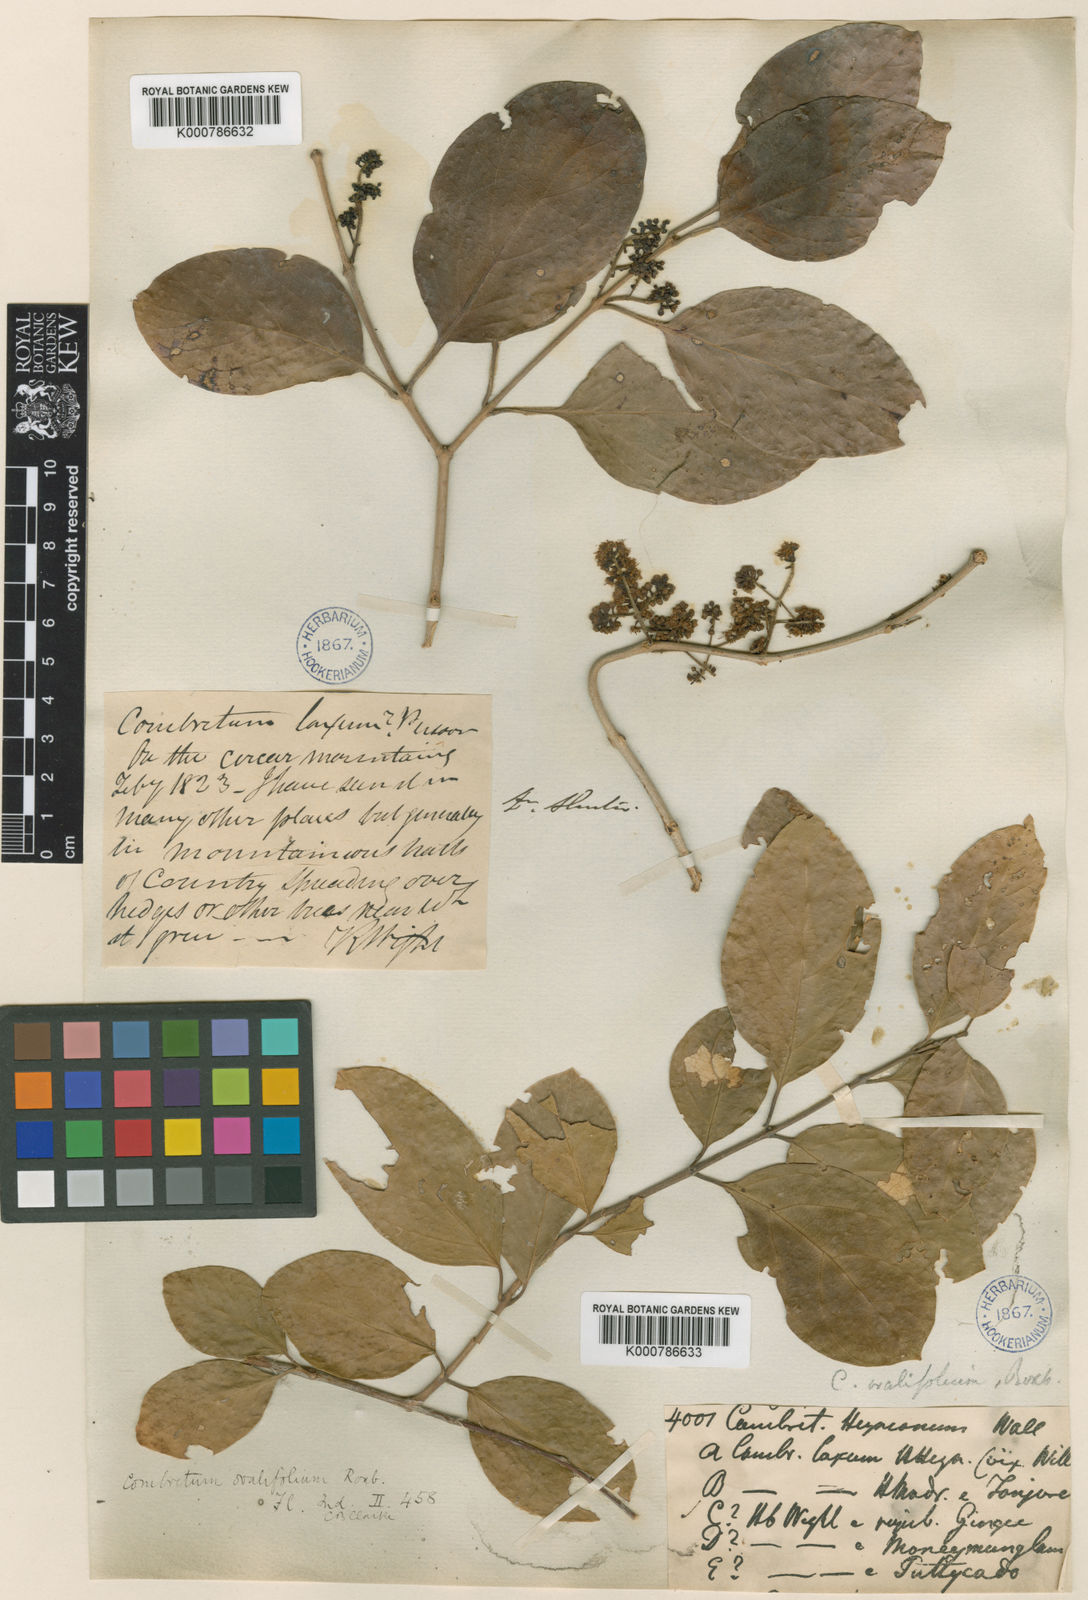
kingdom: Plantae
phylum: Tracheophyta
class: Magnoliopsida
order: Myrtales
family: Combretaceae
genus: Combretum
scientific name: Combretum
